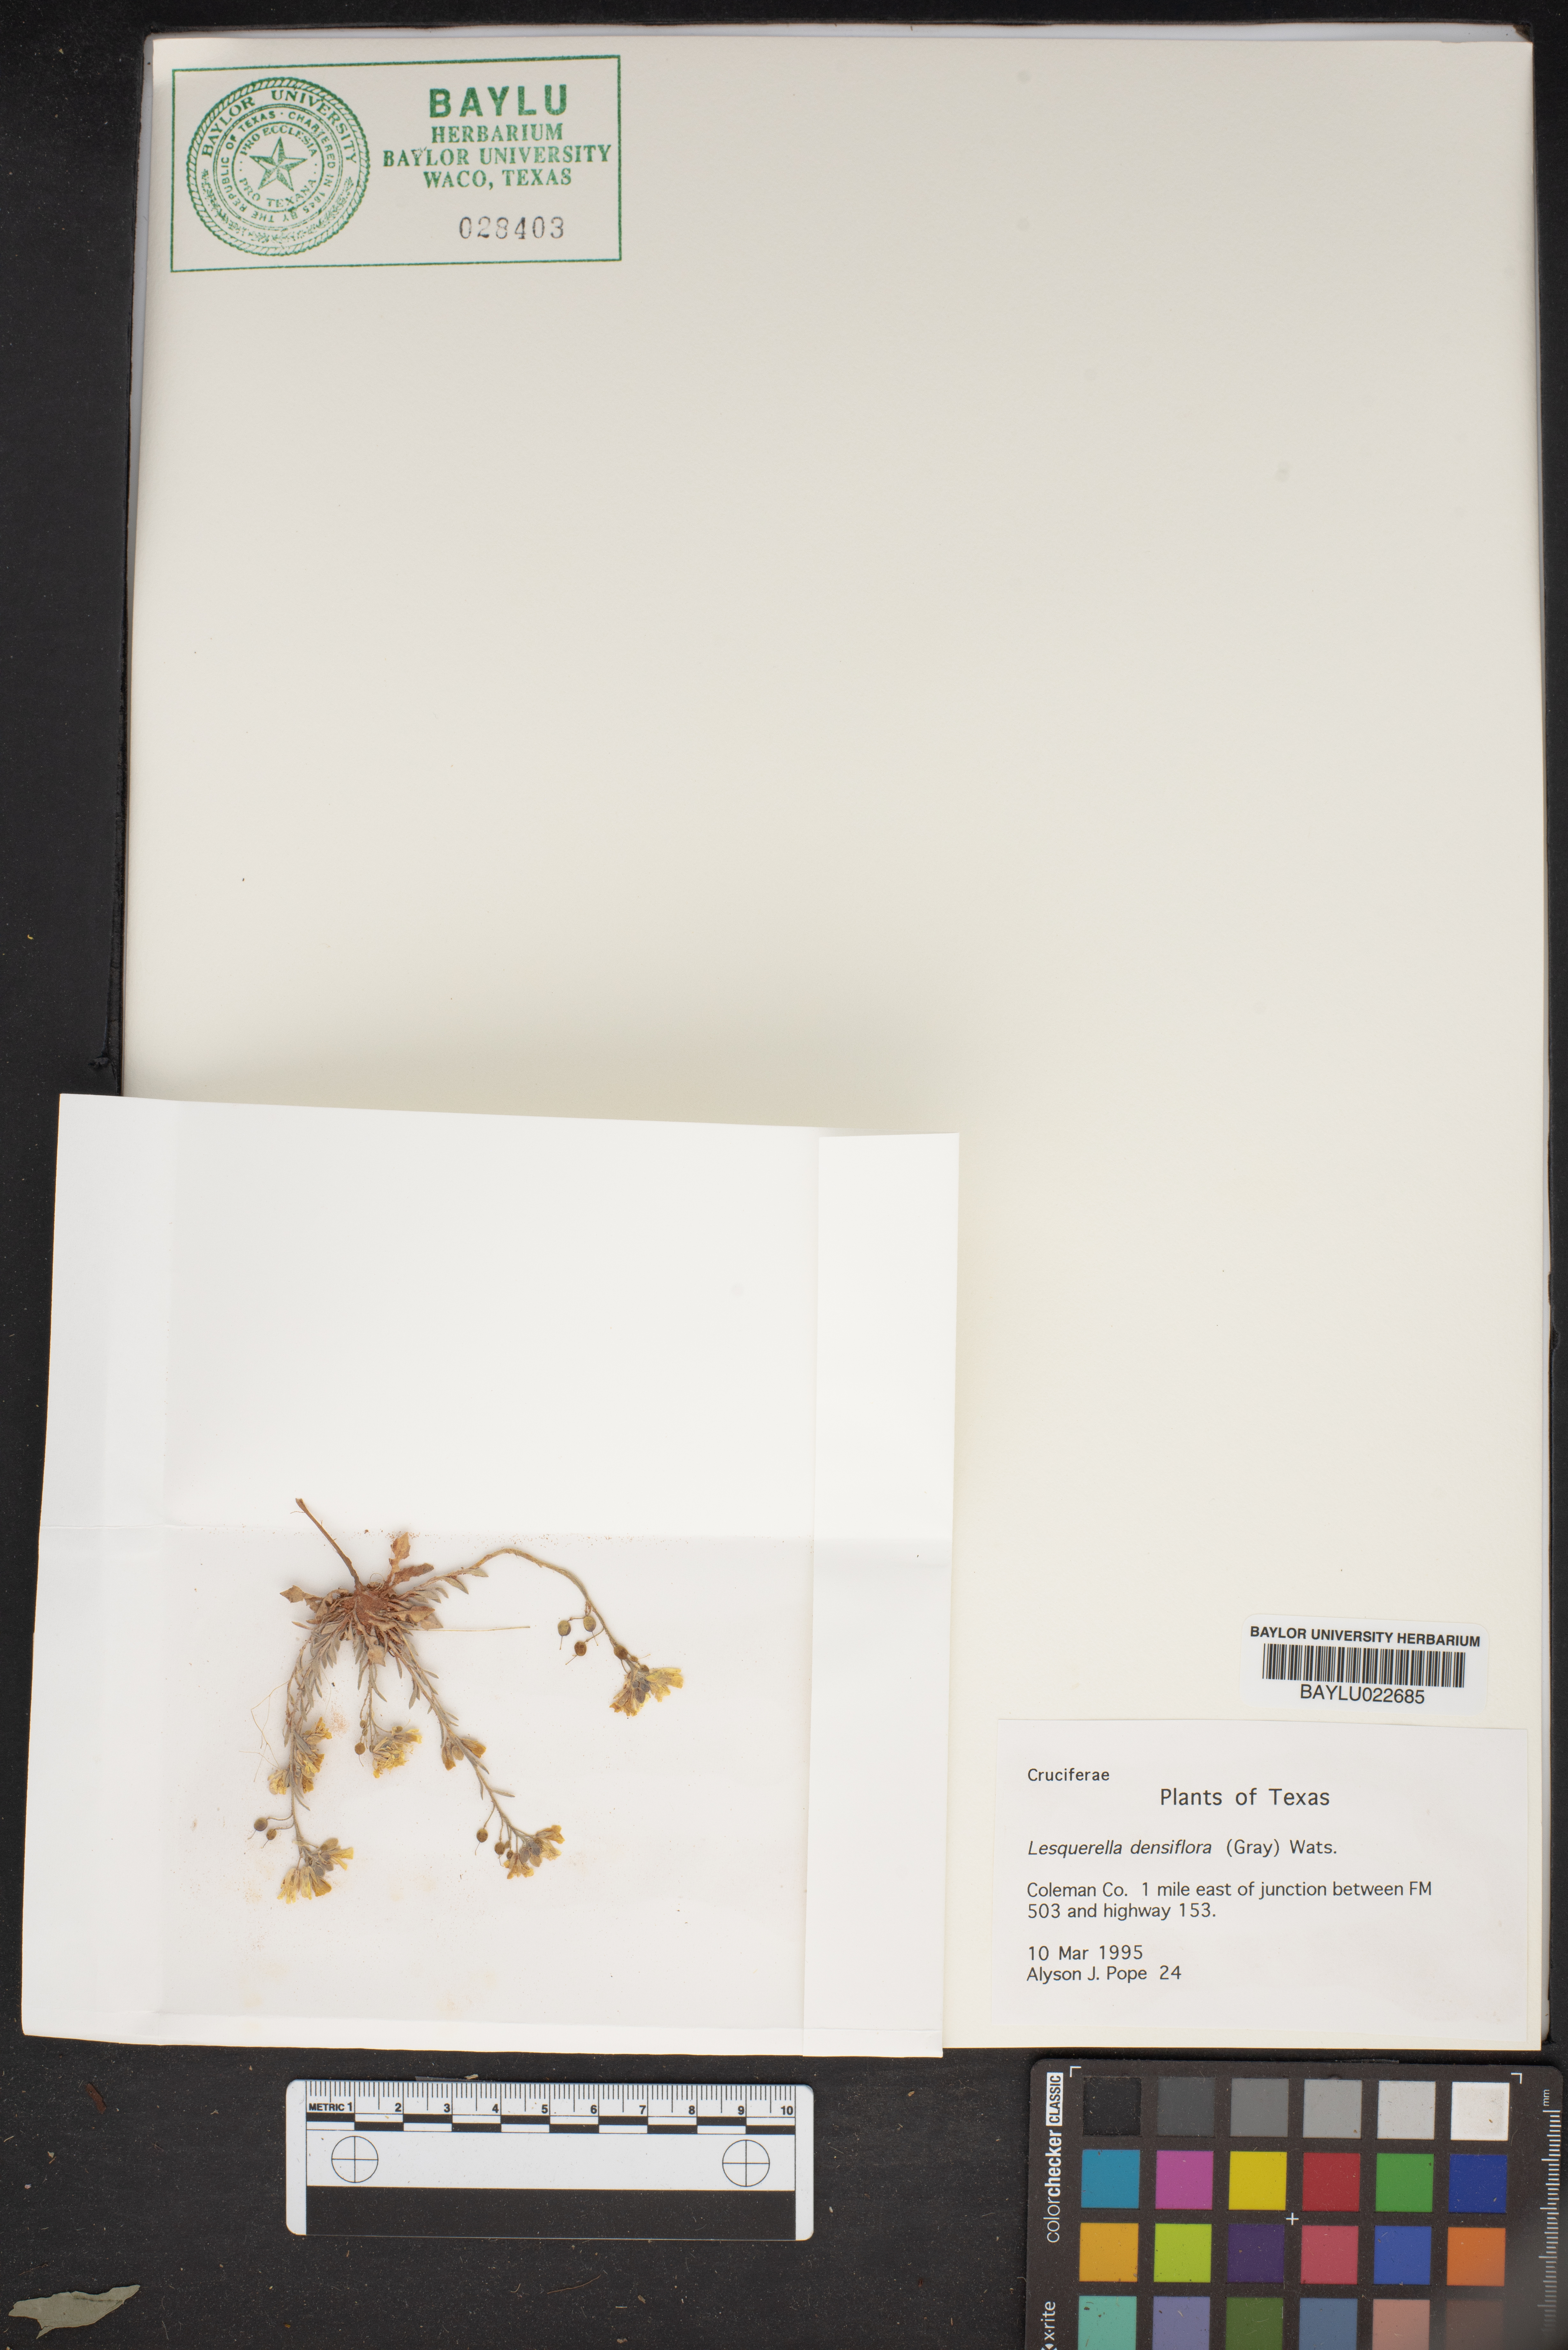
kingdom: Plantae
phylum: Tracheophyta
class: Magnoliopsida
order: Brassicales
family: Brassicaceae
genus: Physaria
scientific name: Physaria densiflora
